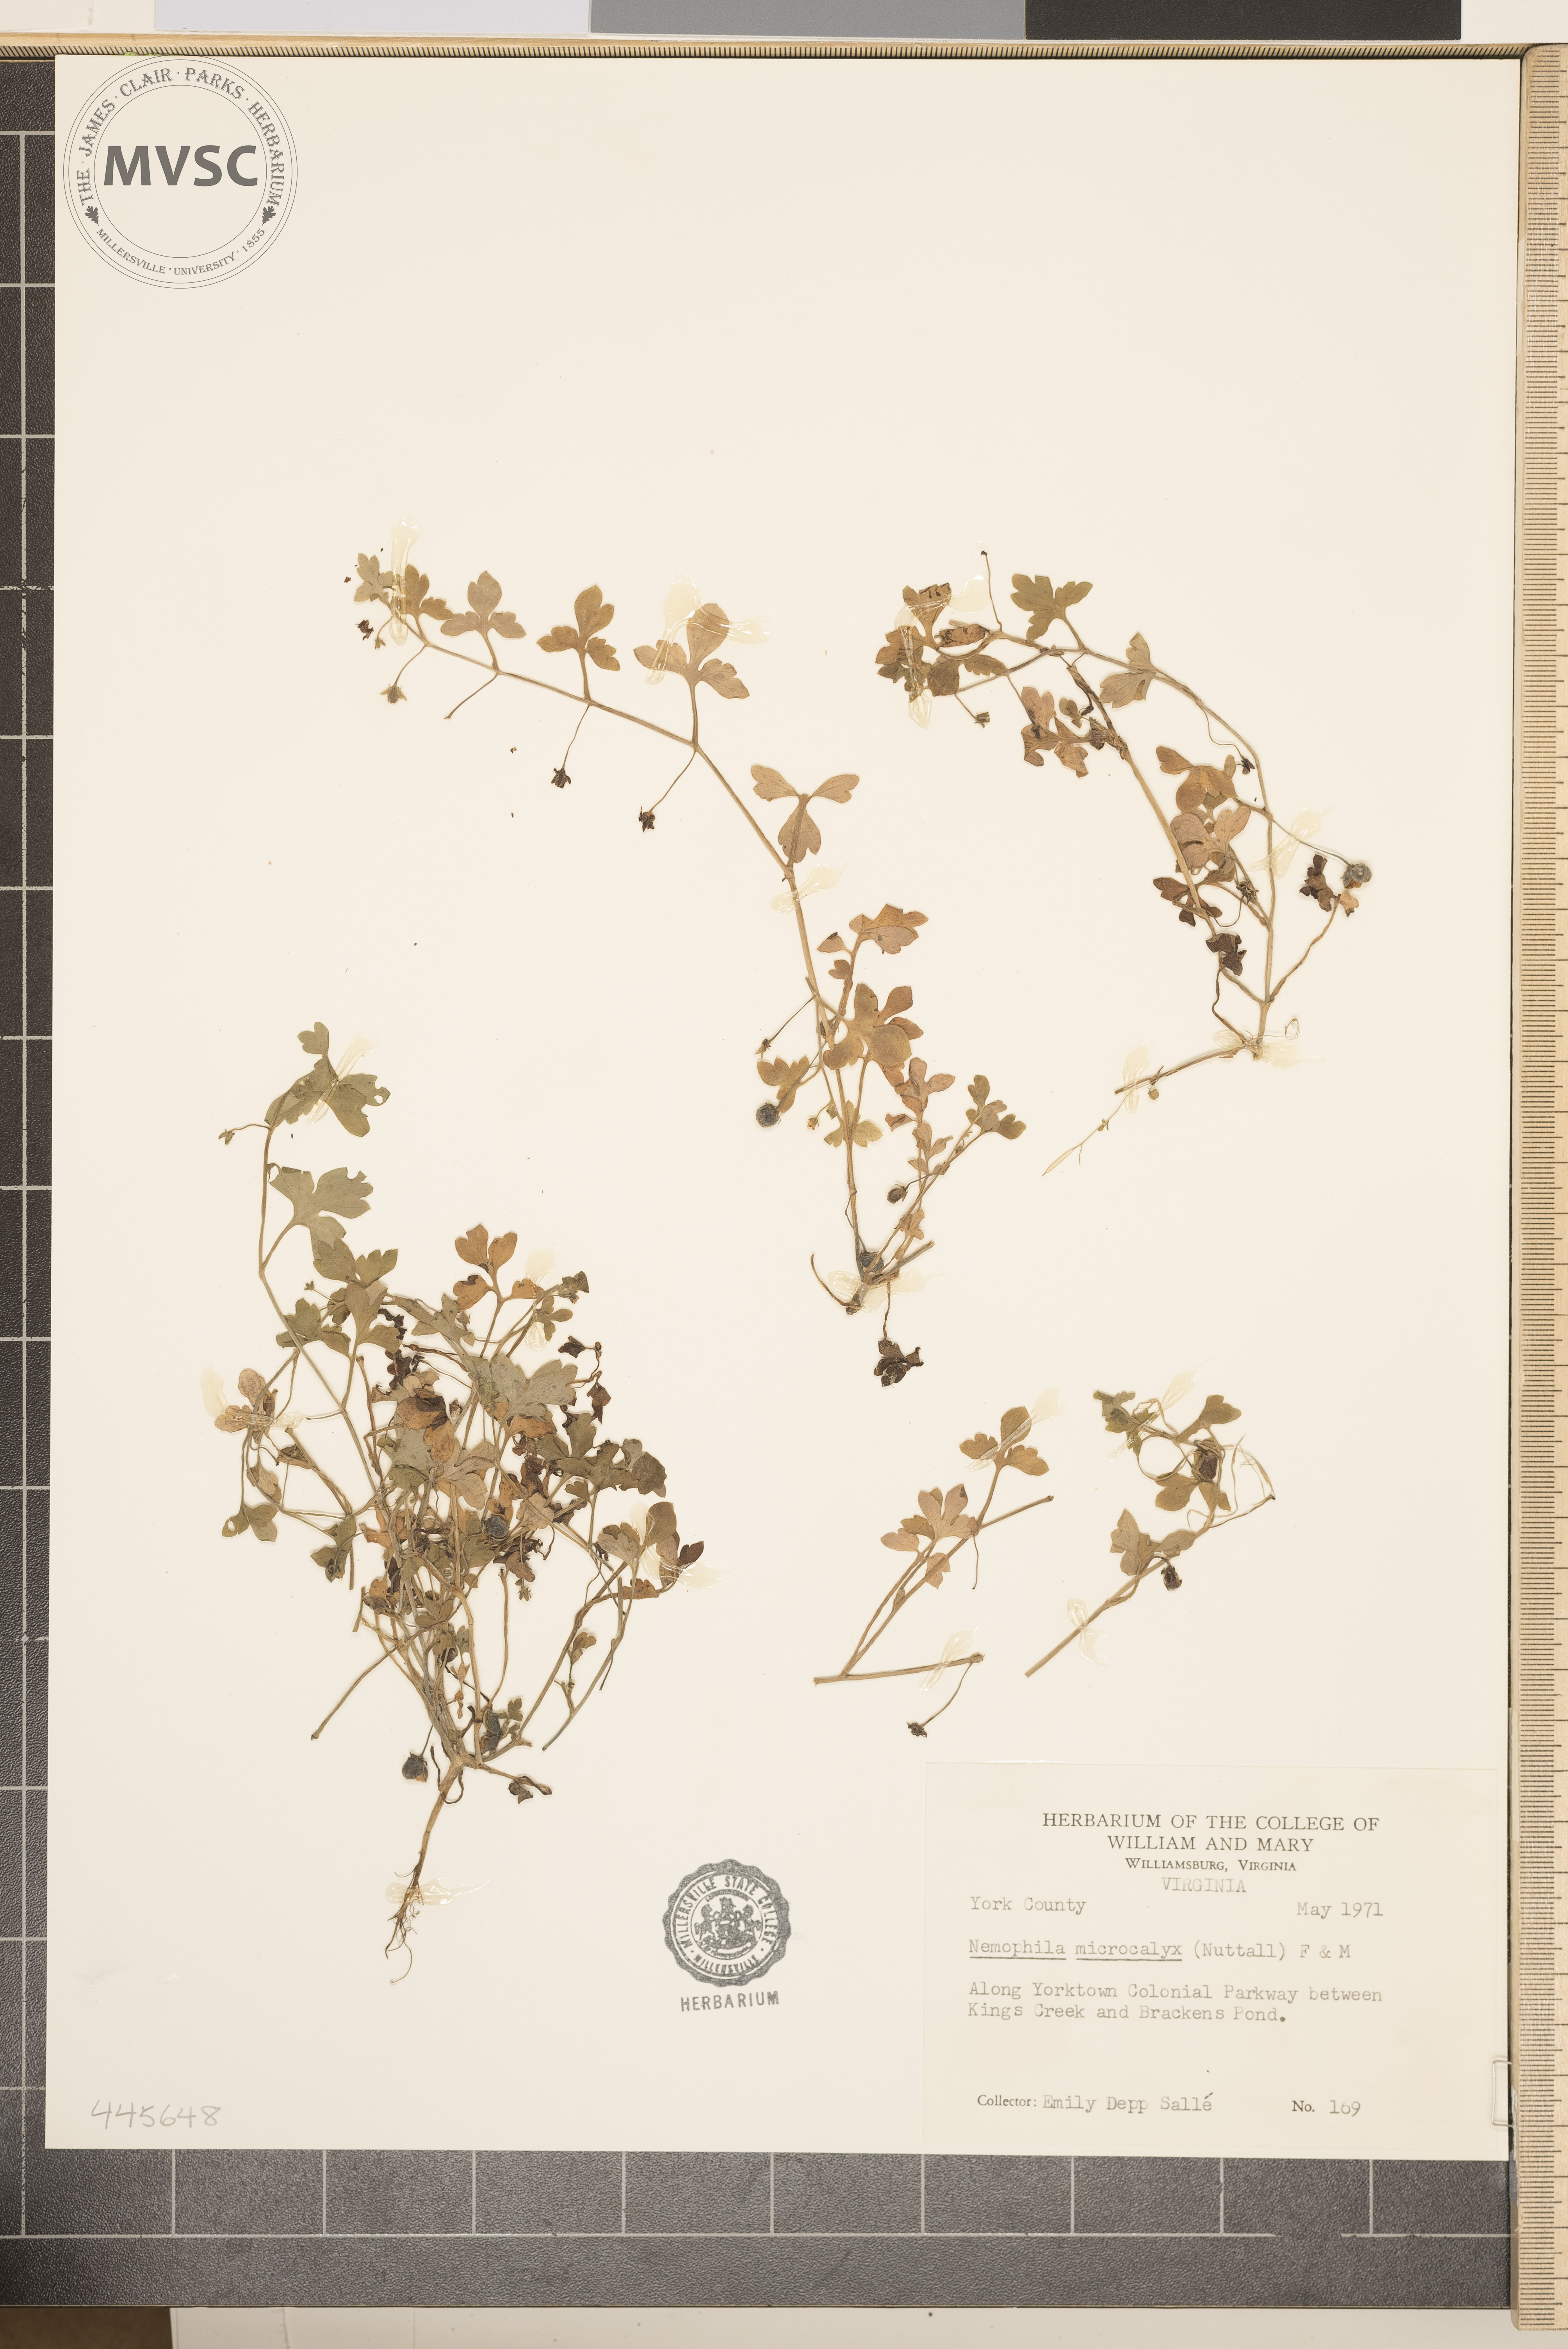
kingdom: Plantae
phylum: Tracheophyta
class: Magnoliopsida
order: Boraginales
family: Hydrophyllaceae
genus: Nemophila
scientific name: Nemophila aphylla
